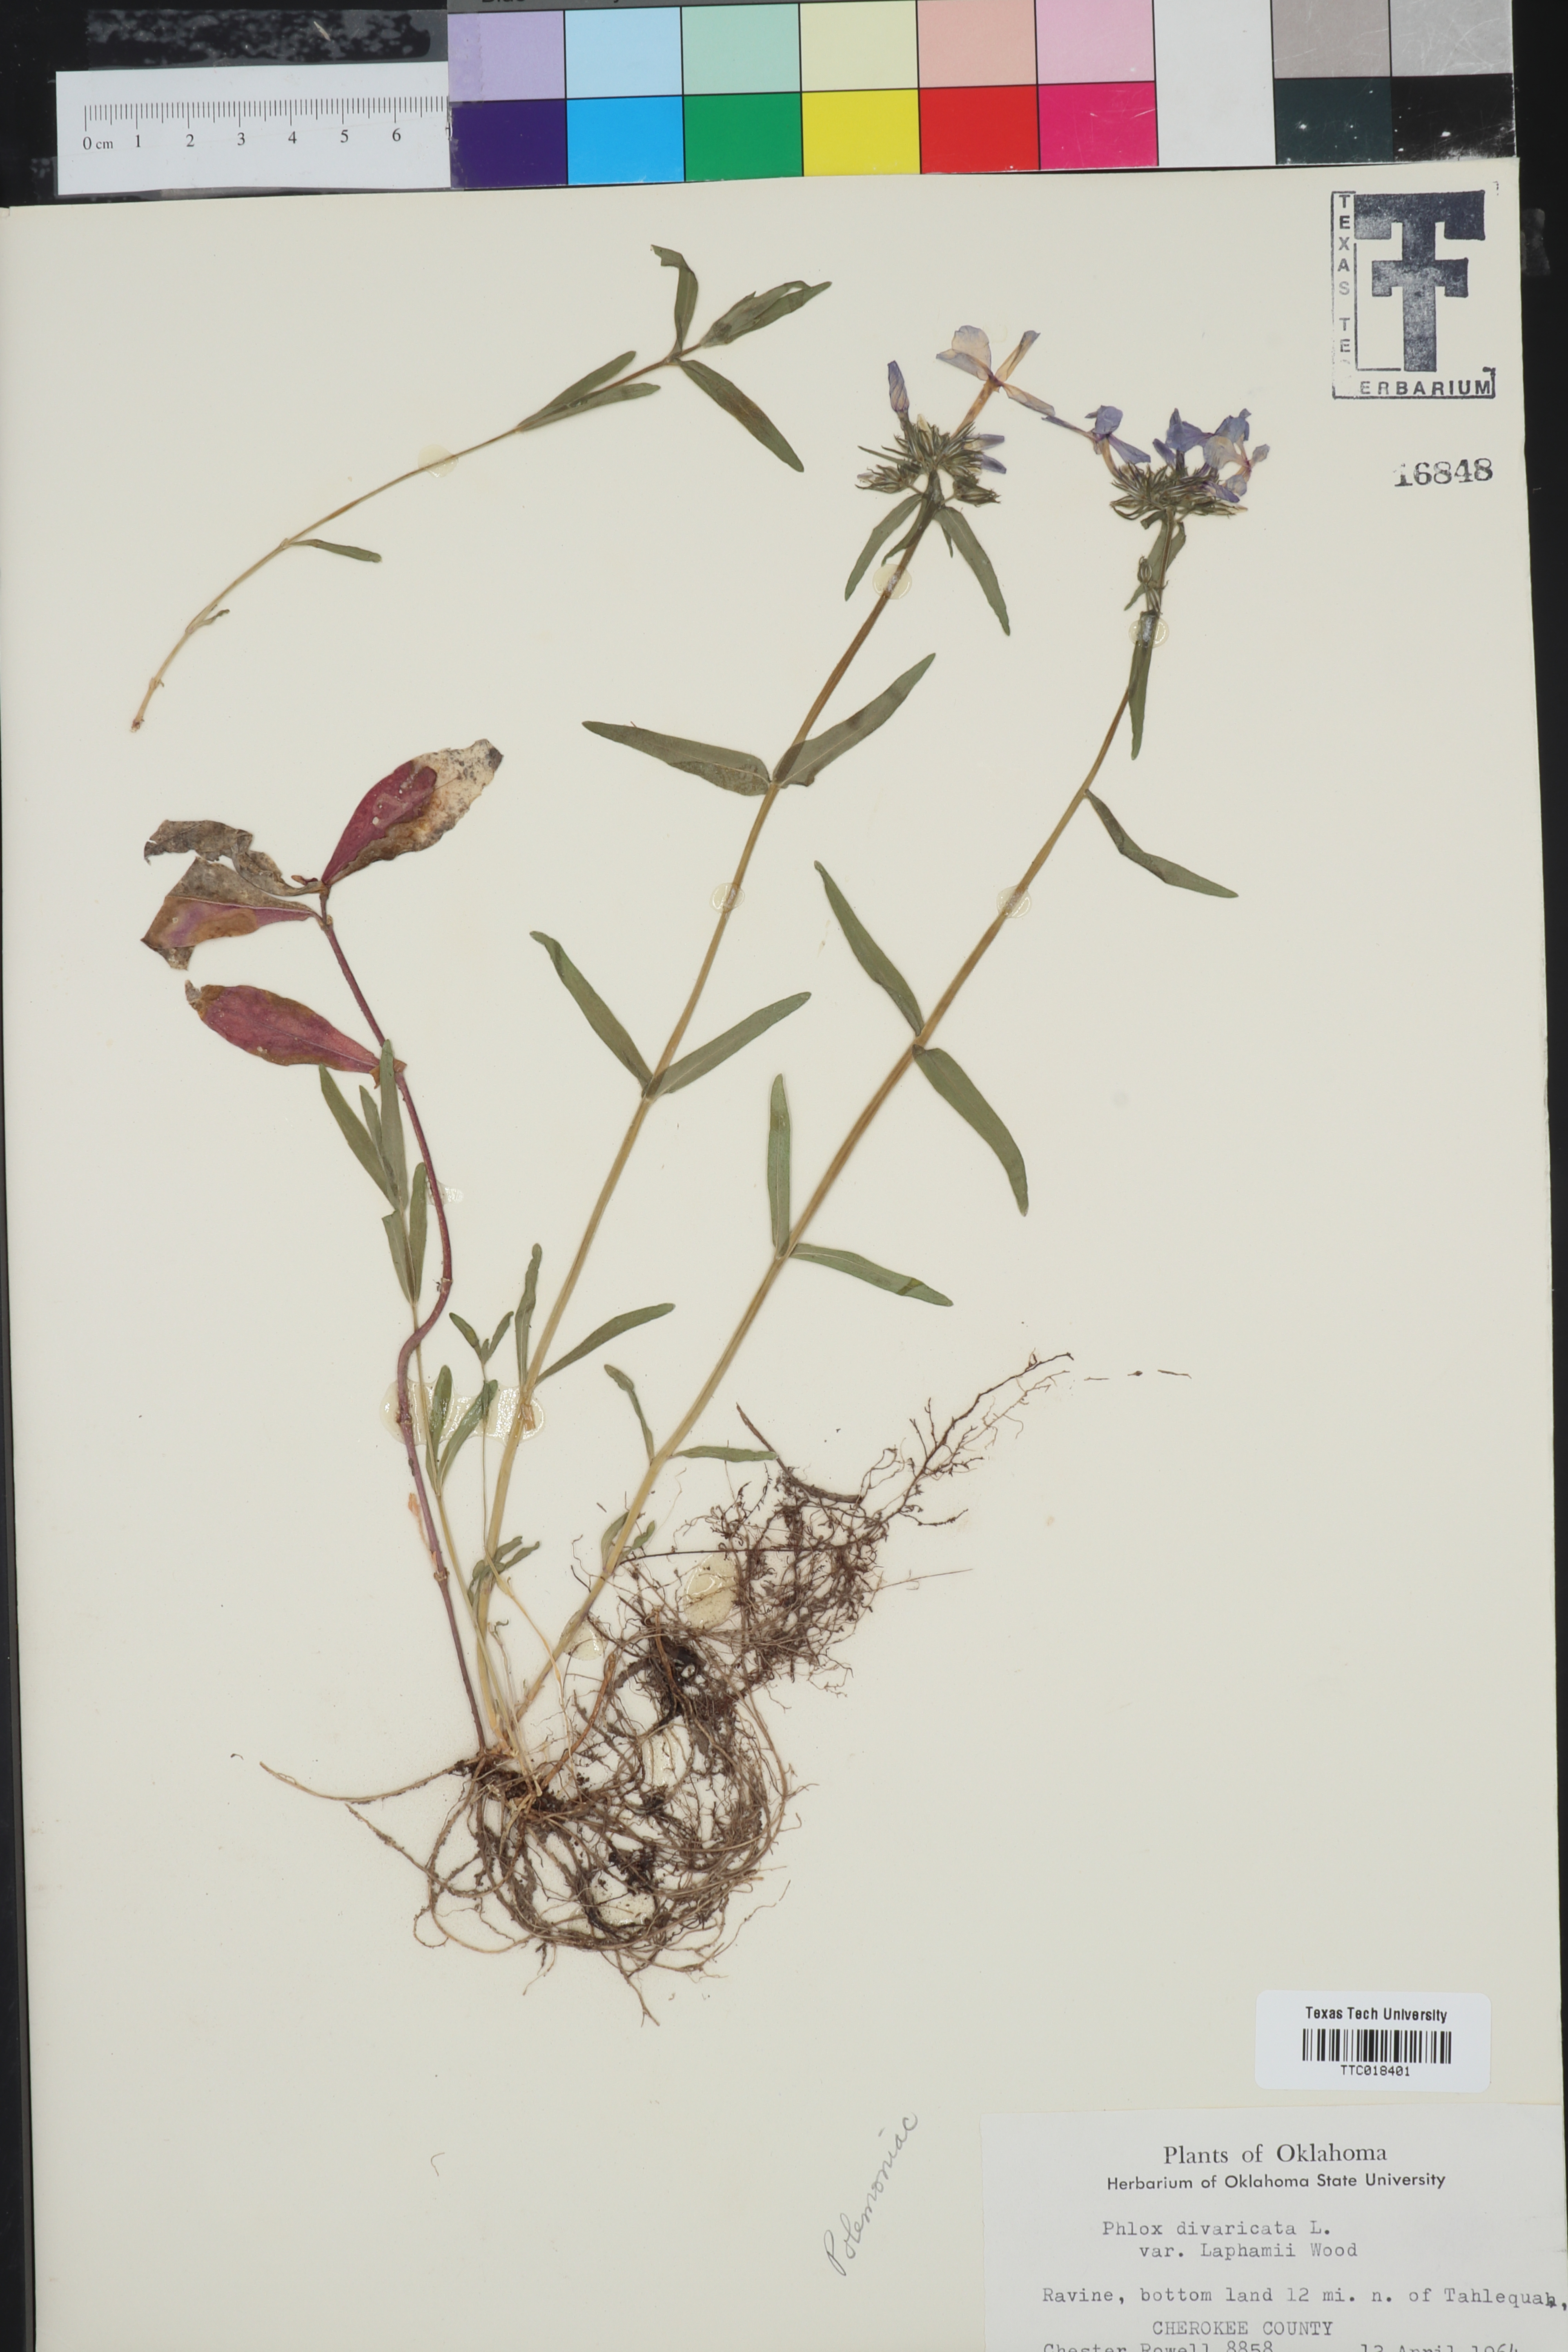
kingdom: Plantae
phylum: Tracheophyta
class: Magnoliopsida
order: Ericales
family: Polemoniaceae
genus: Phlox
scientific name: Phlox divaricata
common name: Blue phlox
